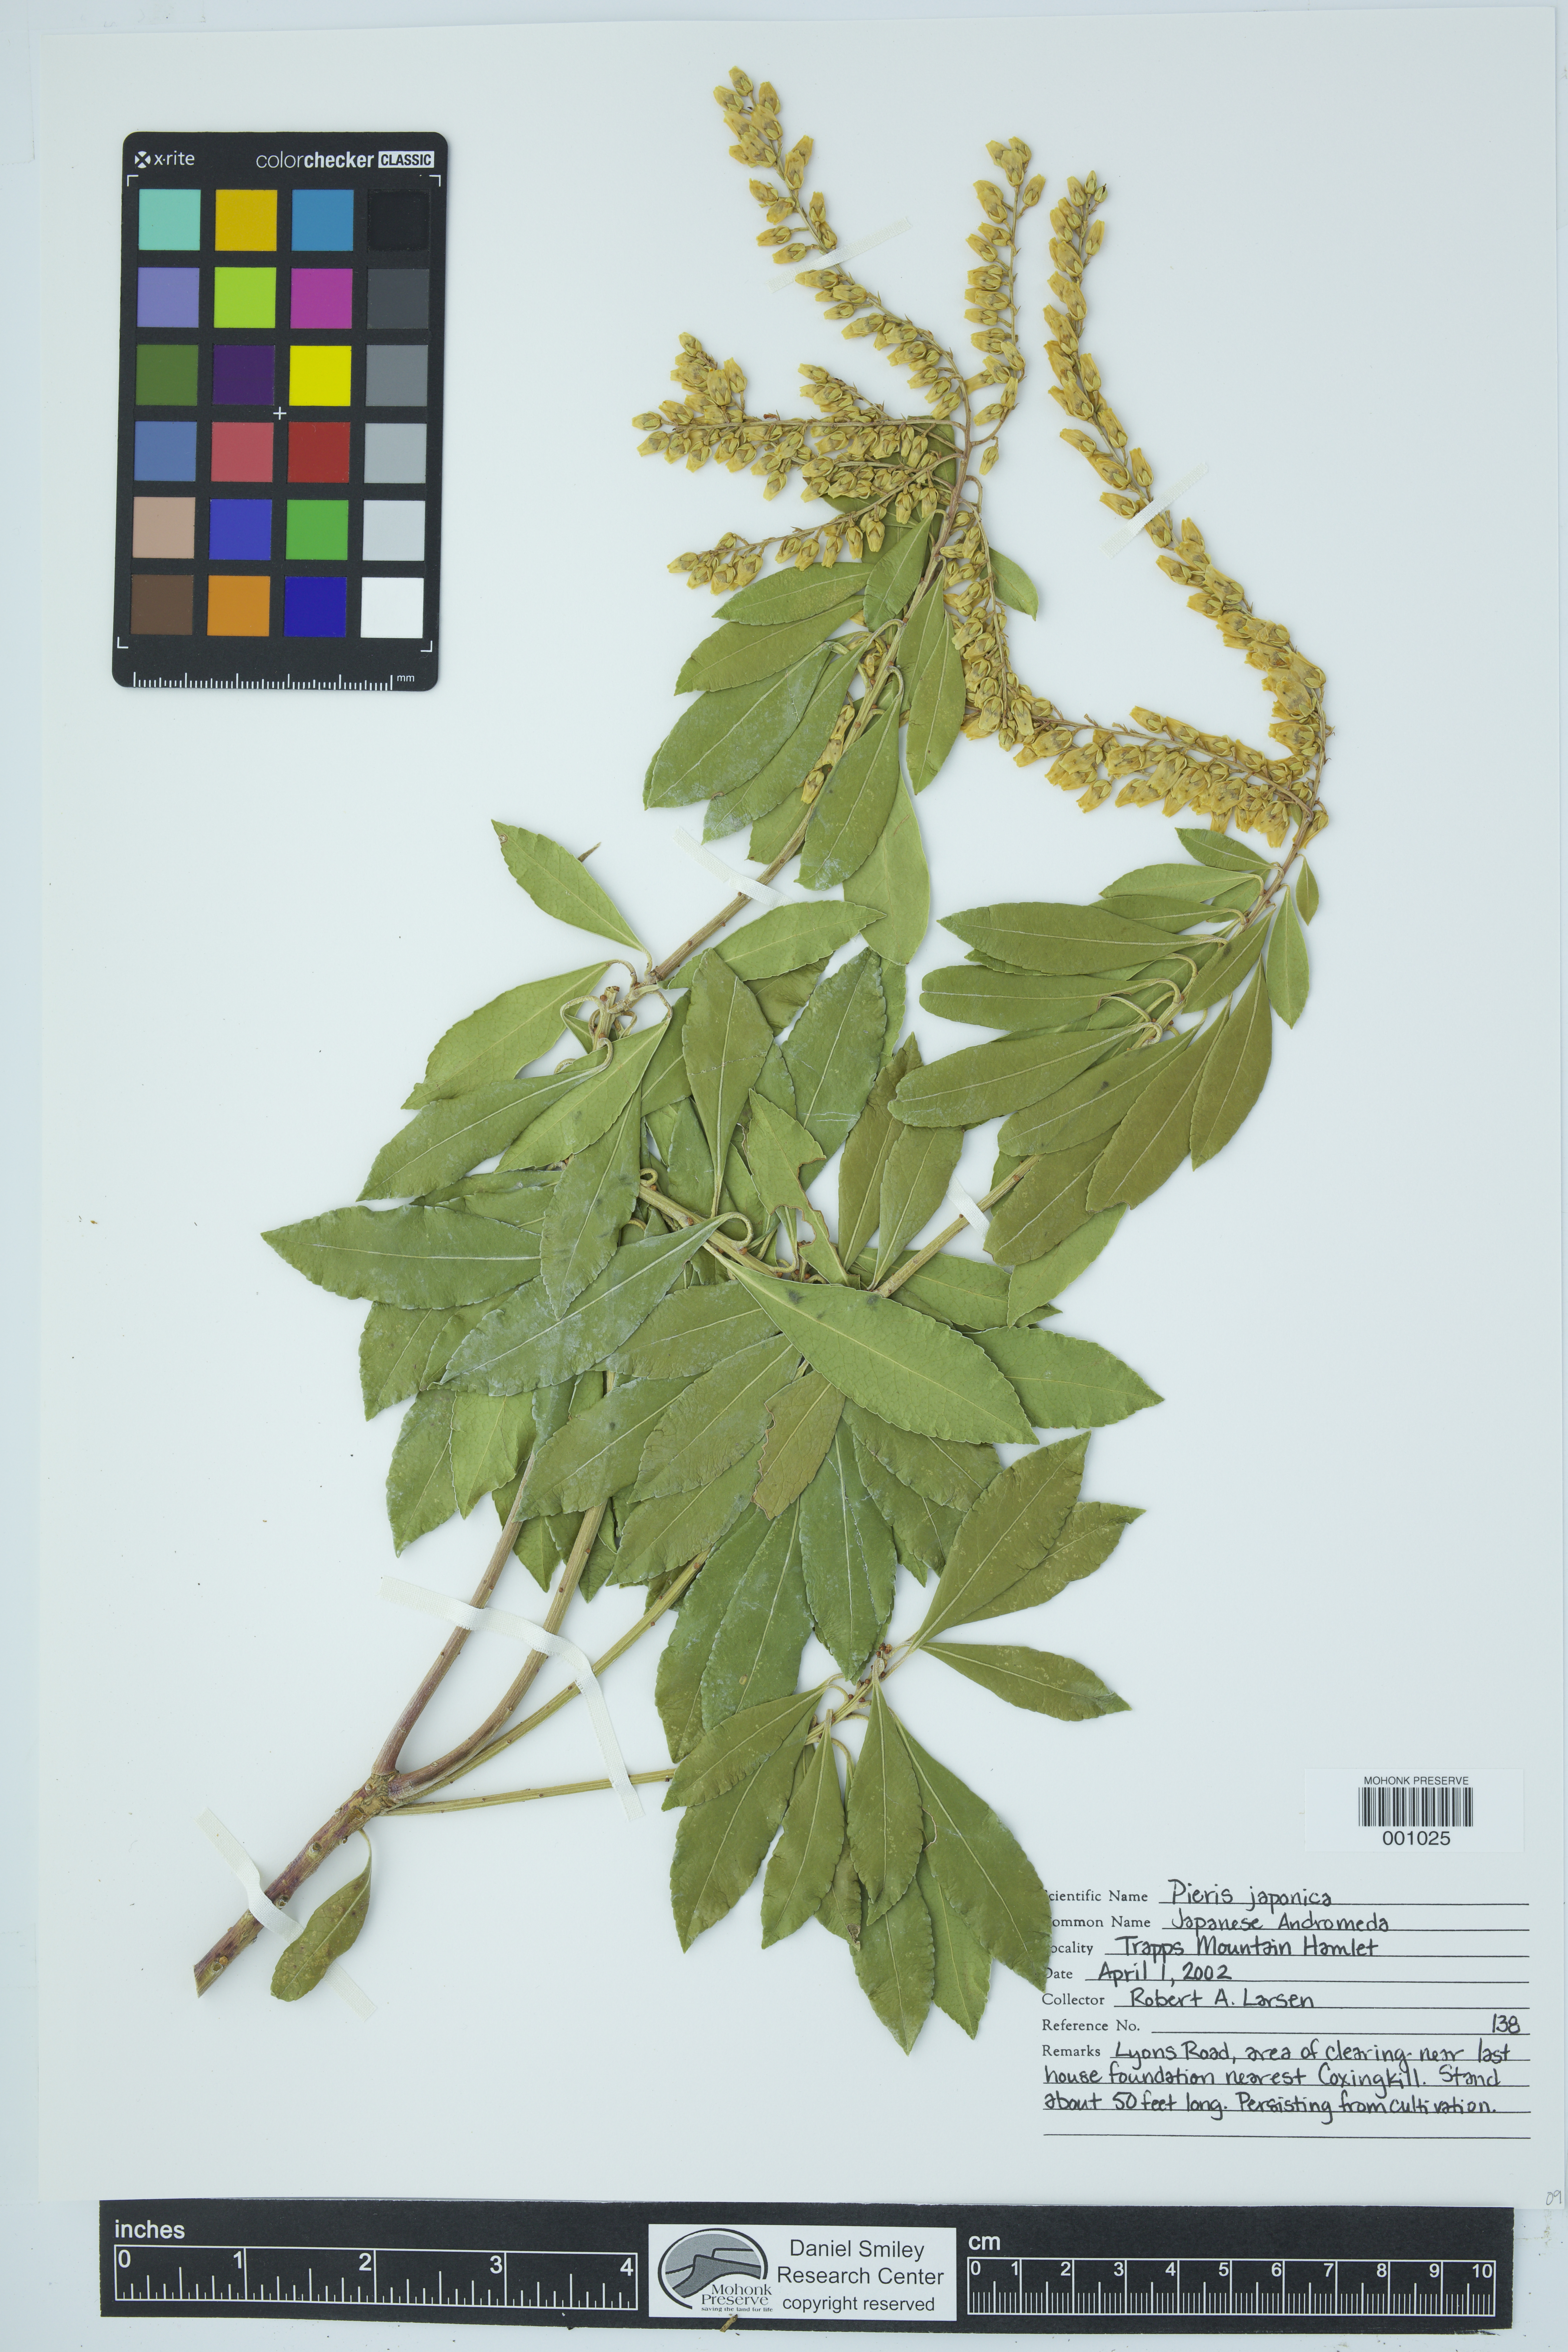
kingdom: Plantae
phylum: Tracheophyta
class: Magnoliopsida
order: Ericales
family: Ericaceae
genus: Pieris
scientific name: Pieris japonica
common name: Japanese pieris
